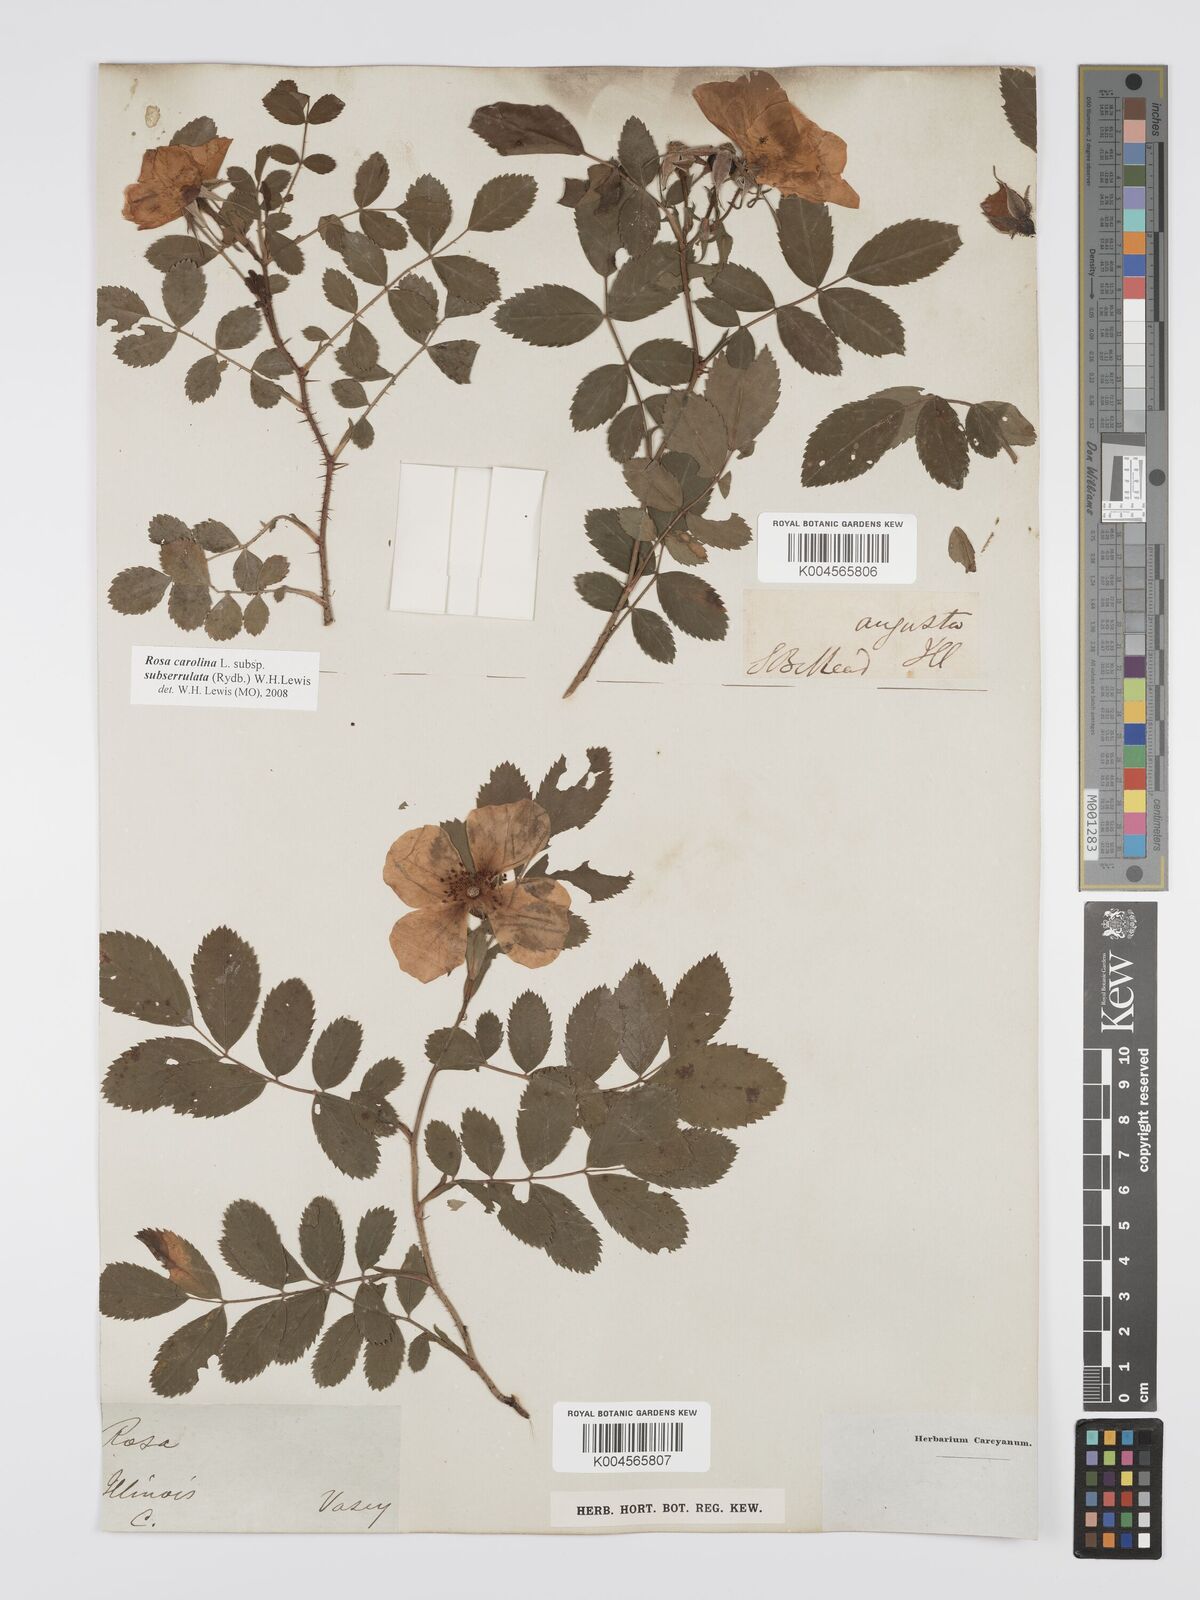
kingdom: Plantae
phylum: Tracheophyta
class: Magnoliopsida
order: Rosales
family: Rosaceae
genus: Rosa
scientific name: Rosa carolina
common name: Pasture rose
